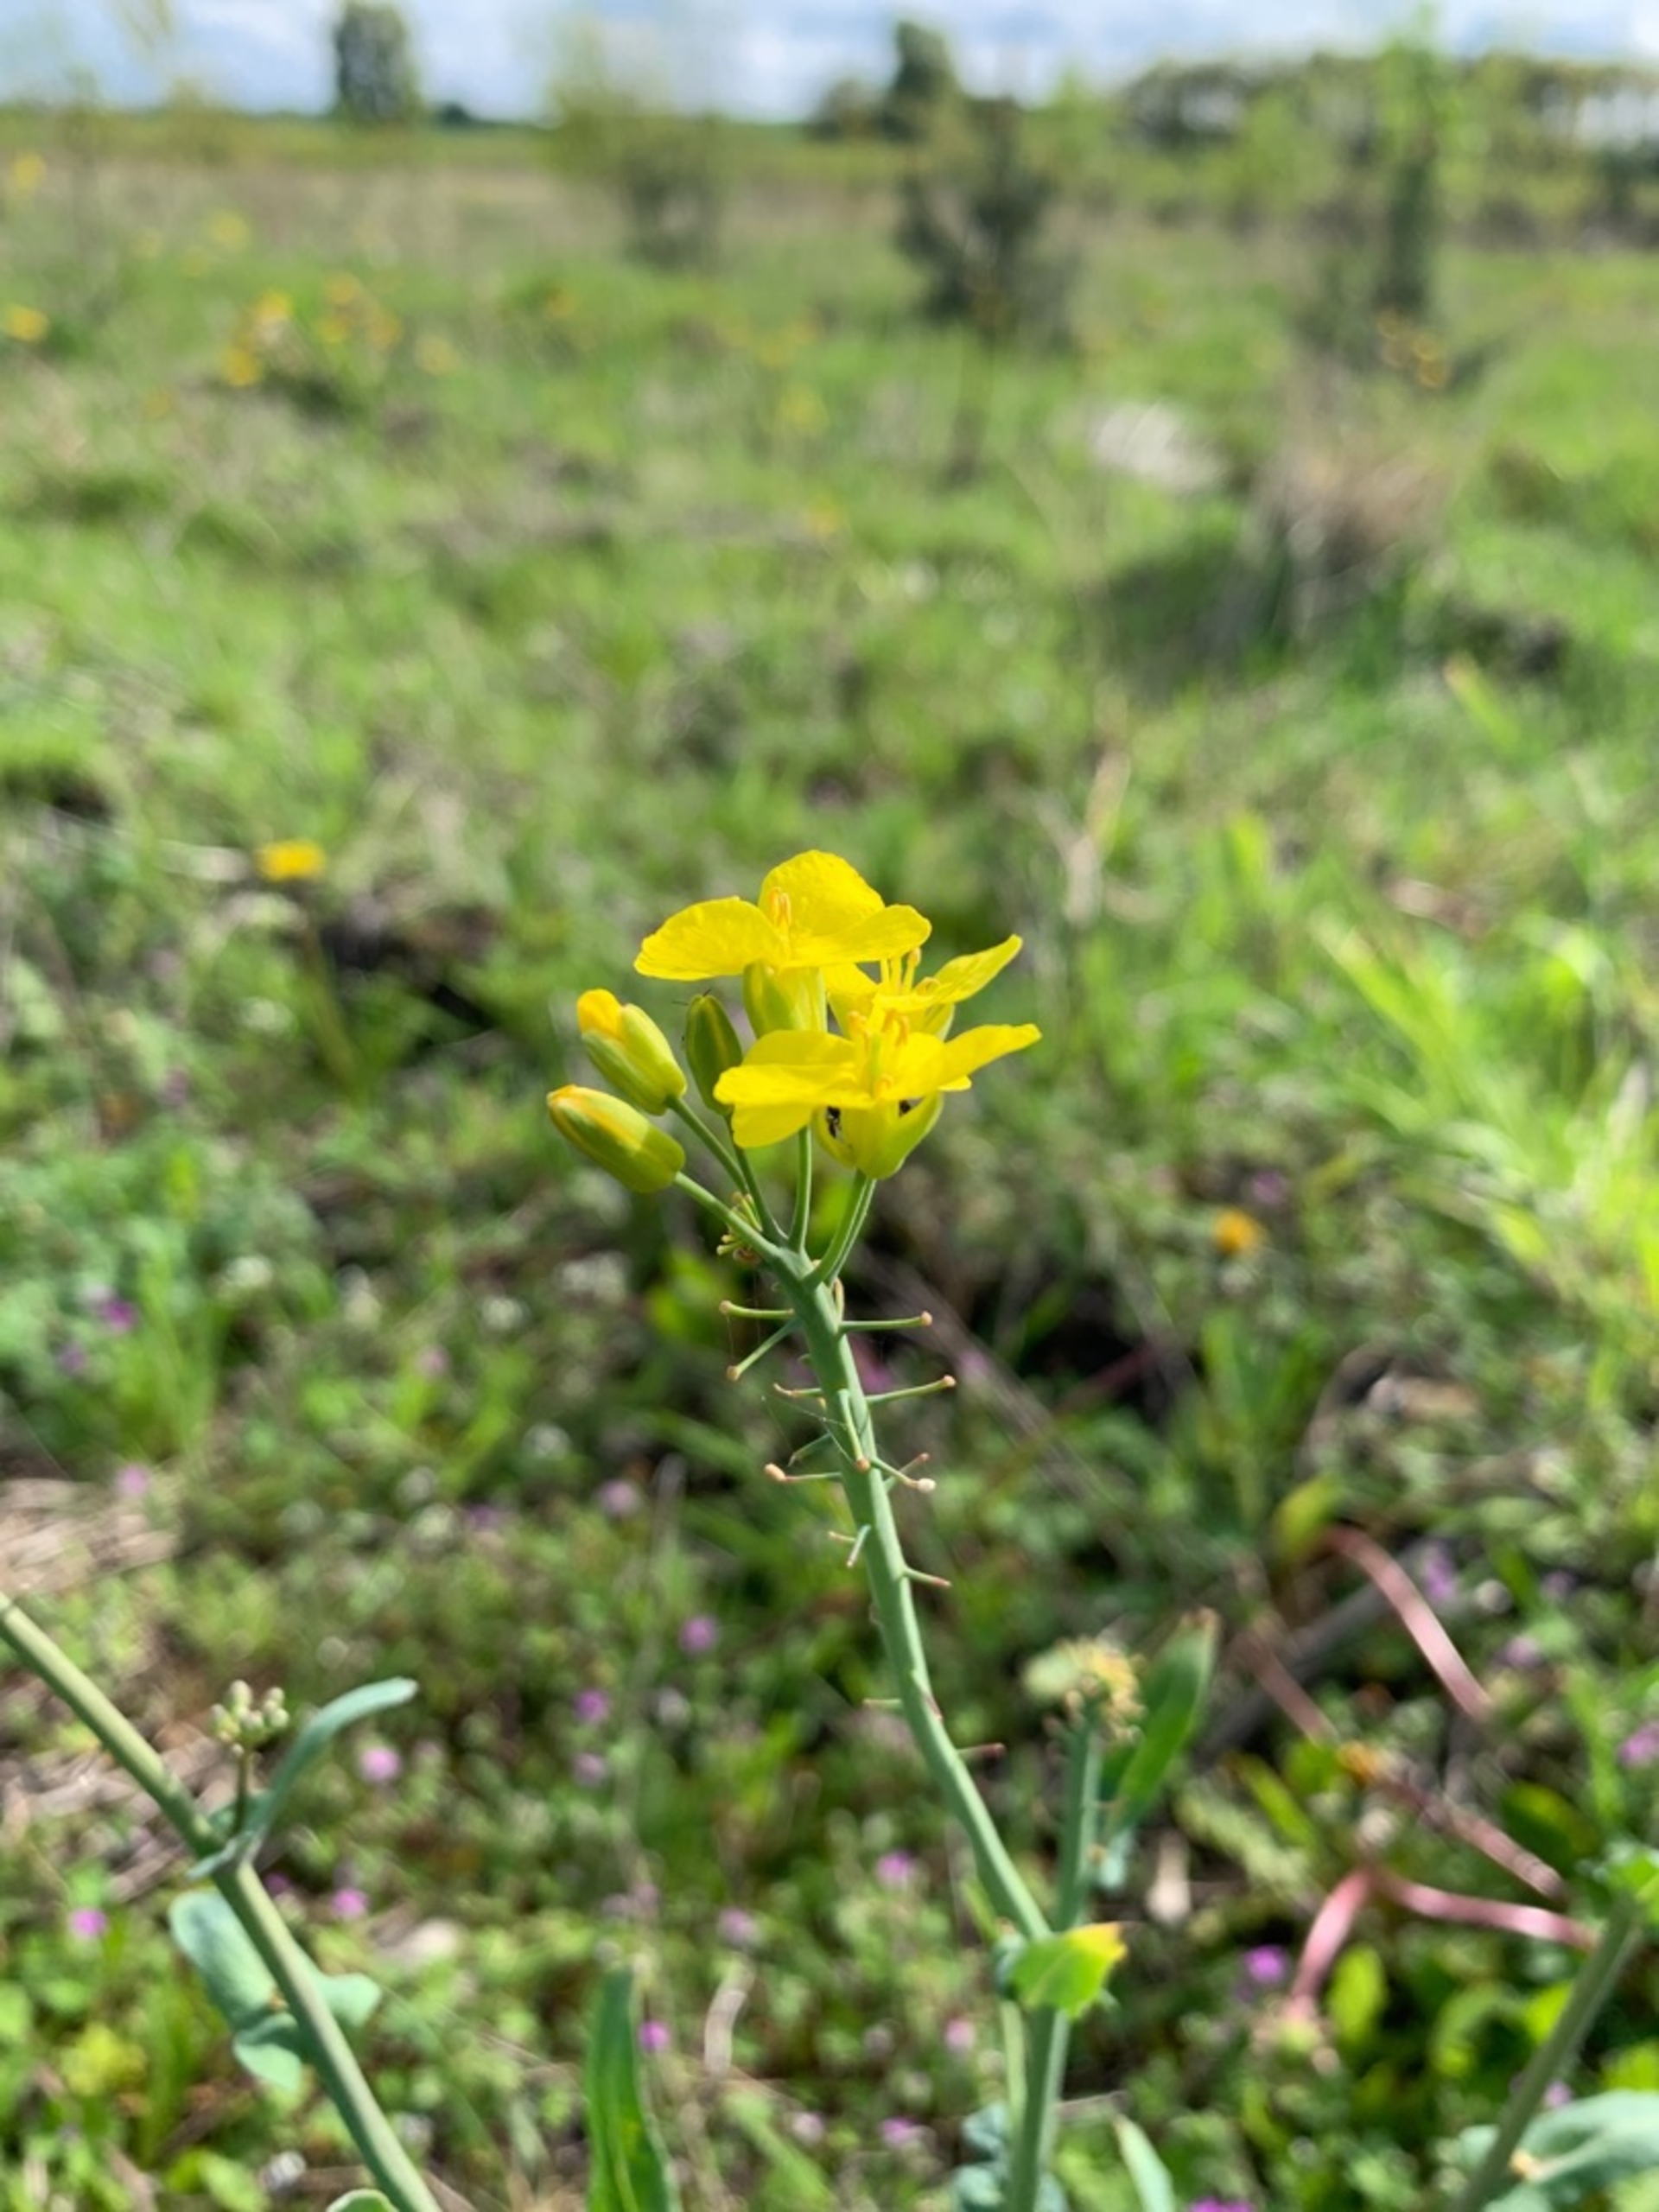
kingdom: Plantae
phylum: Tracheophyta
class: Magnoliopsida
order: Brassicales
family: Brassicaceae
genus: Brassica
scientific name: Brassica rapa
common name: Ager-kål
